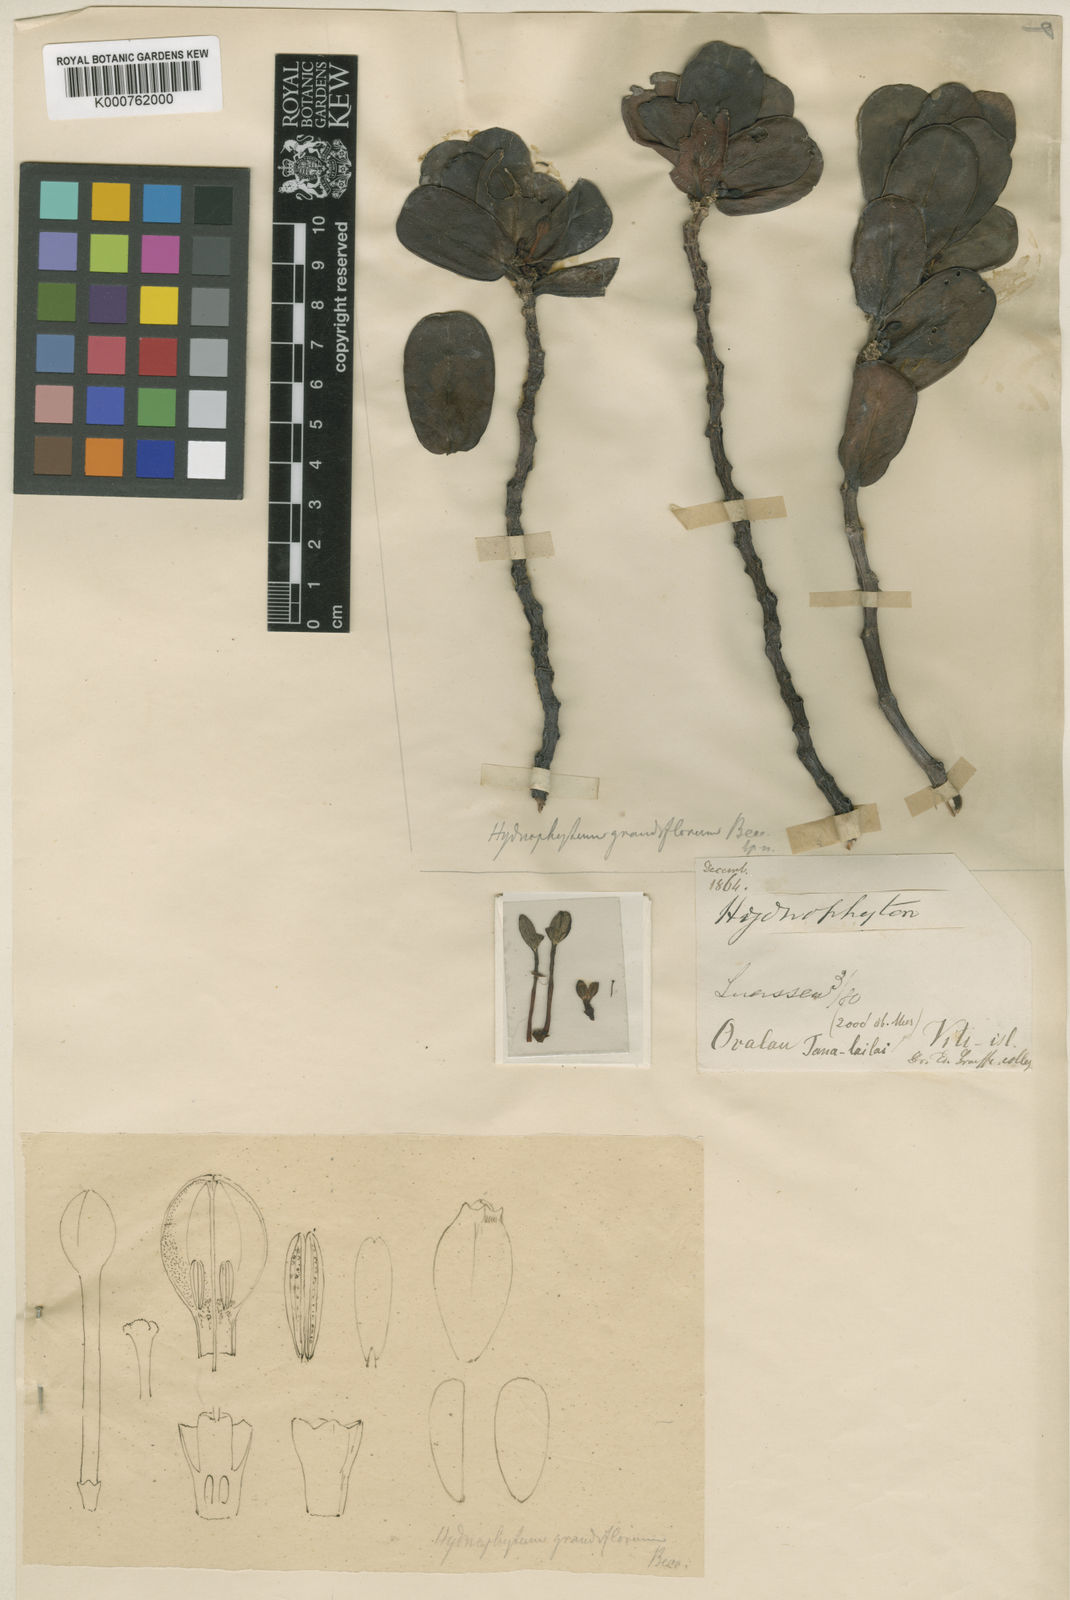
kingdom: Plantae
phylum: Tracheophyta
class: Magnoliopsida
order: Gentianales
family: Rubiaceae
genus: Hydnophytum
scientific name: Hydnophytum grandiflorum
